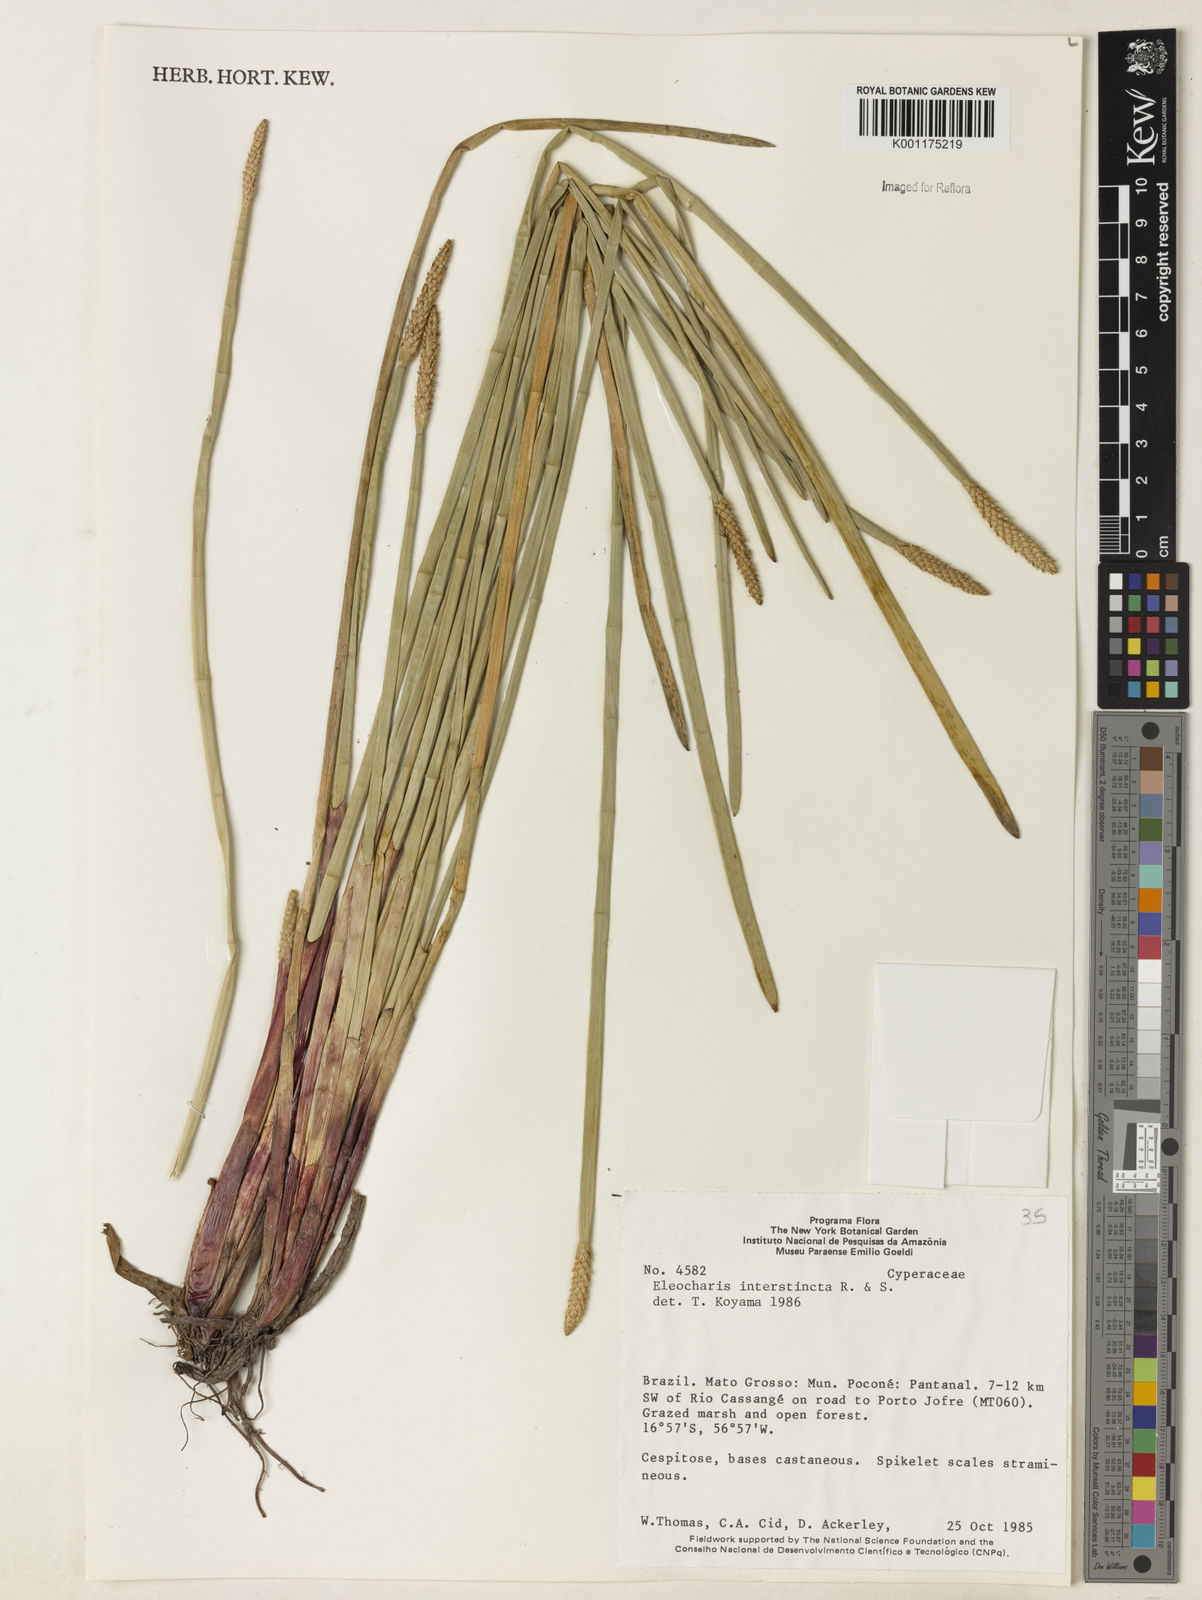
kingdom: Plantae
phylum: Tracheophyta
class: Liliopsida
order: Poales
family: Cyperaceae
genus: Eleocharis
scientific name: Eleocharis interstincta
